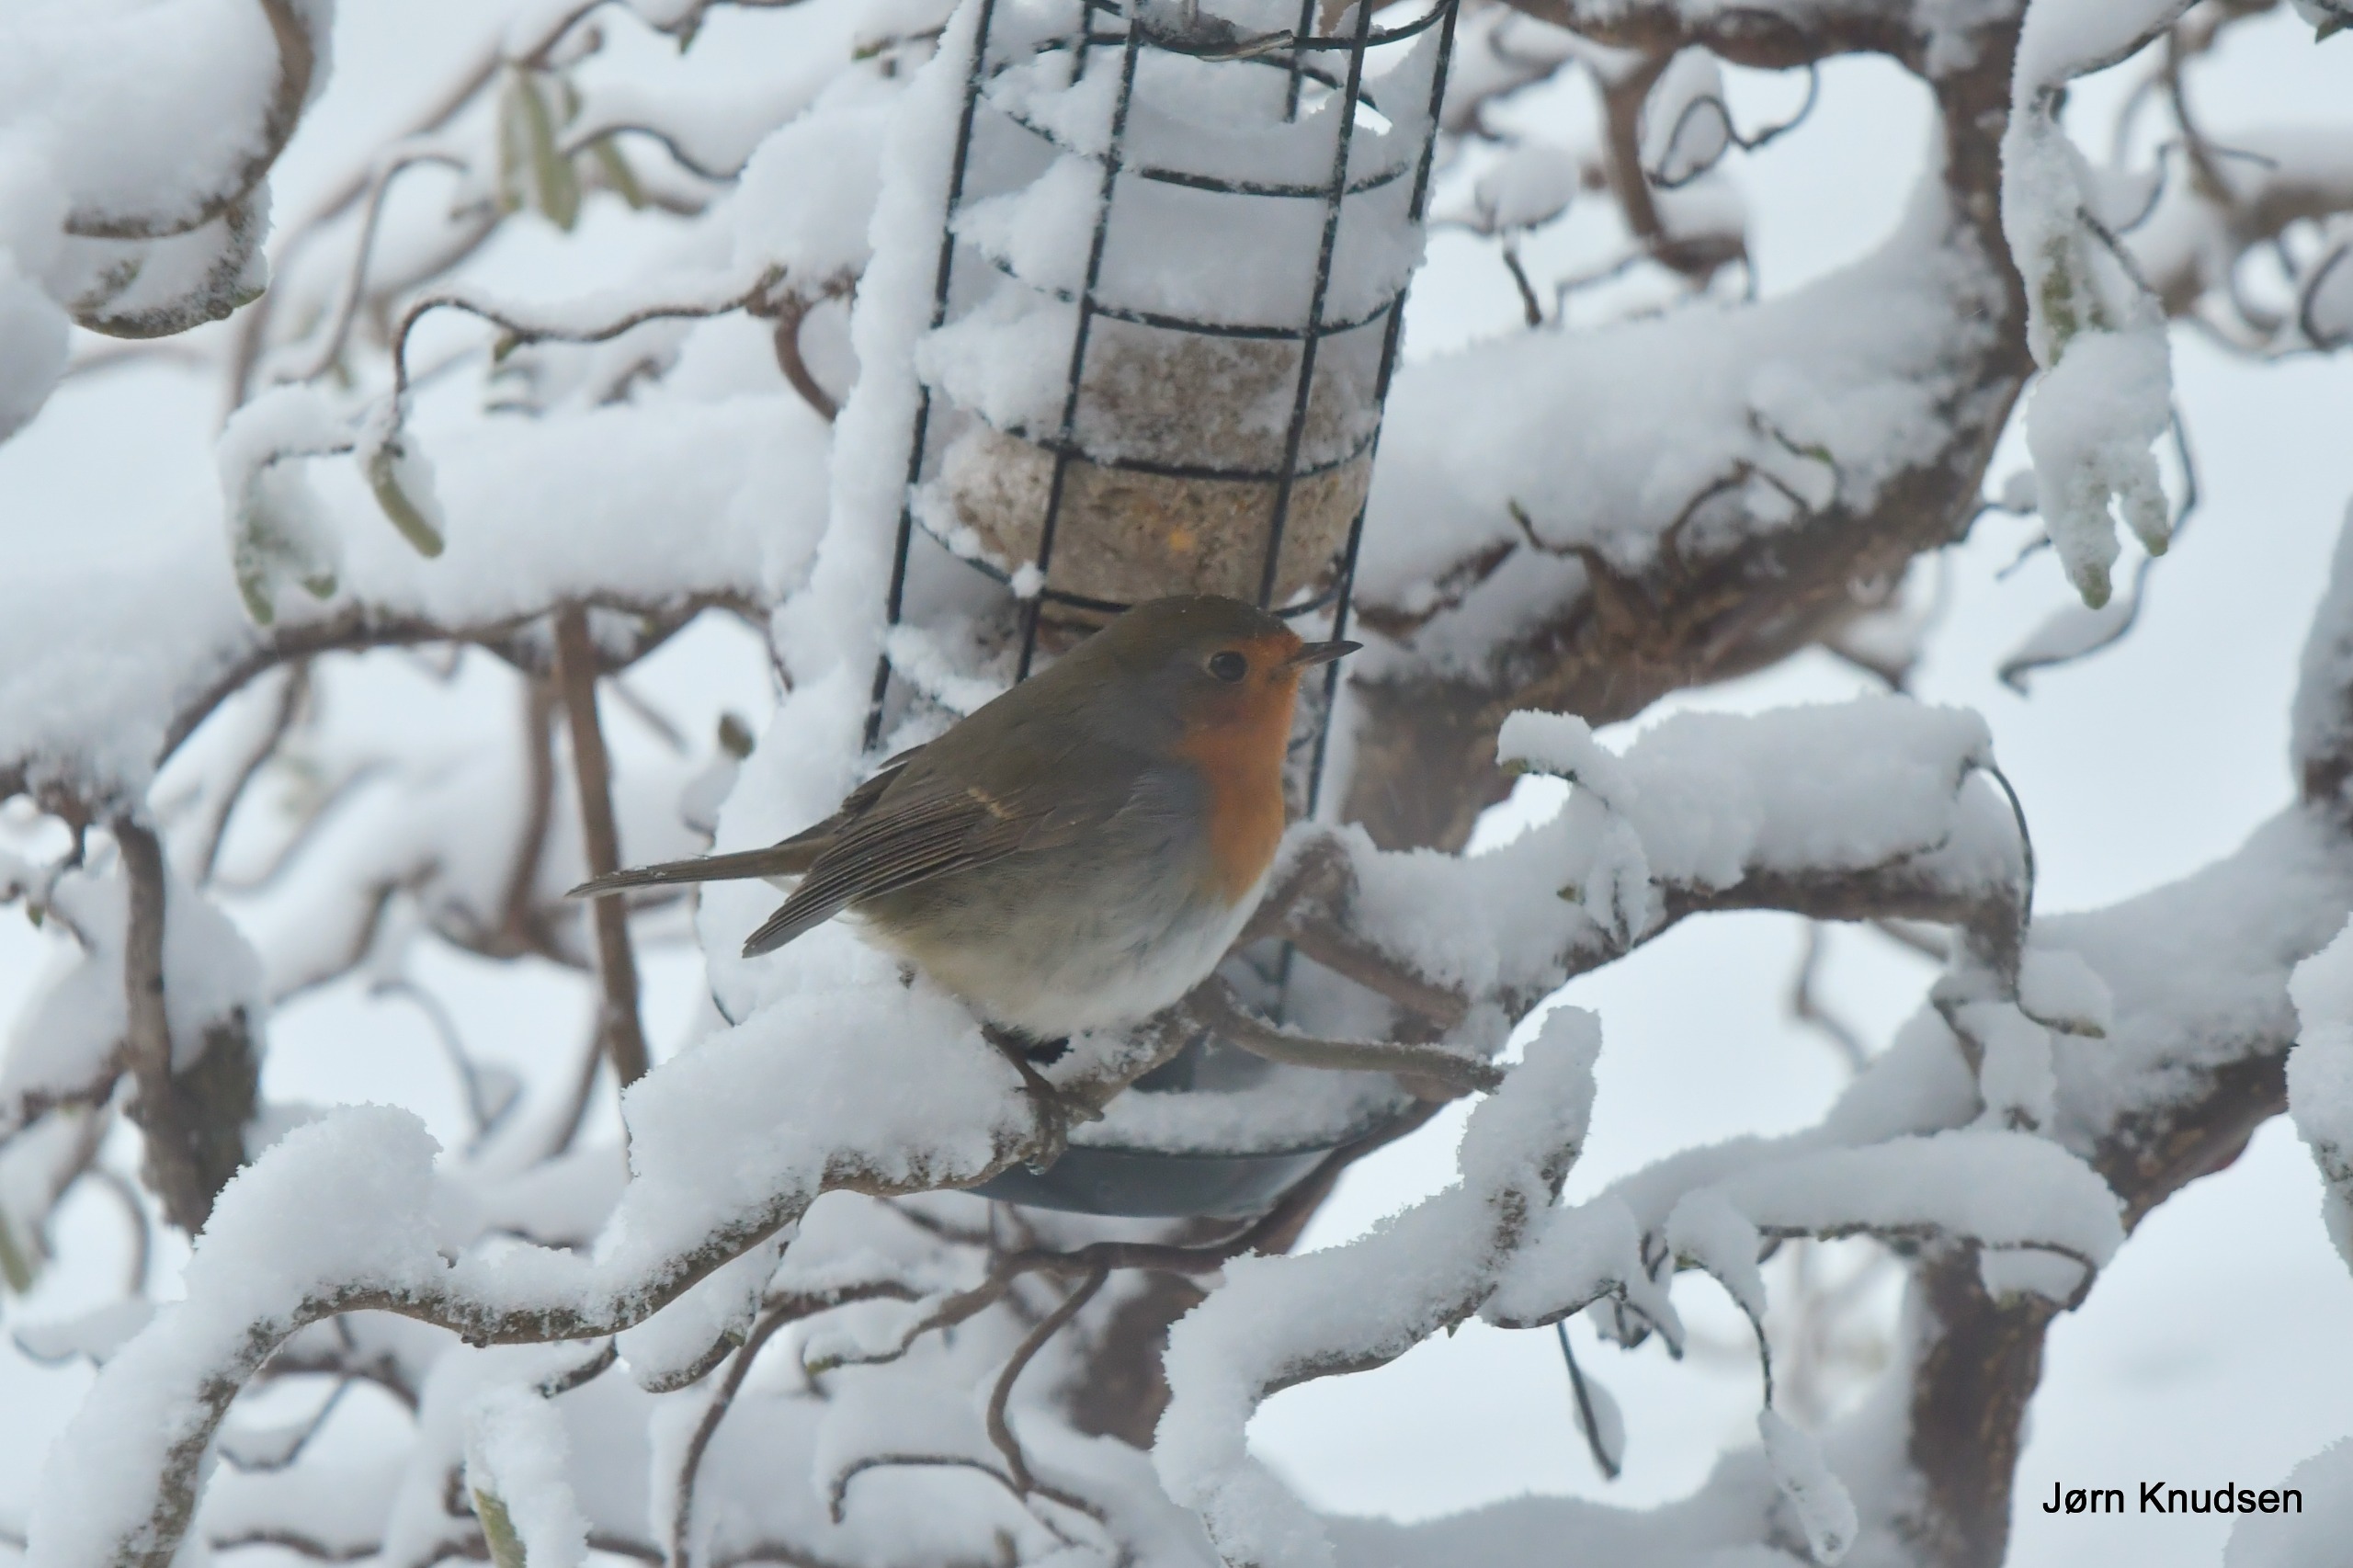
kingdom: Animalia
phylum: Chordata
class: Aves
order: Passeriformes
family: Muscicapidae
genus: Erithacus
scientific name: Erithacus rubecula
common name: Rødhals/rødkælk
